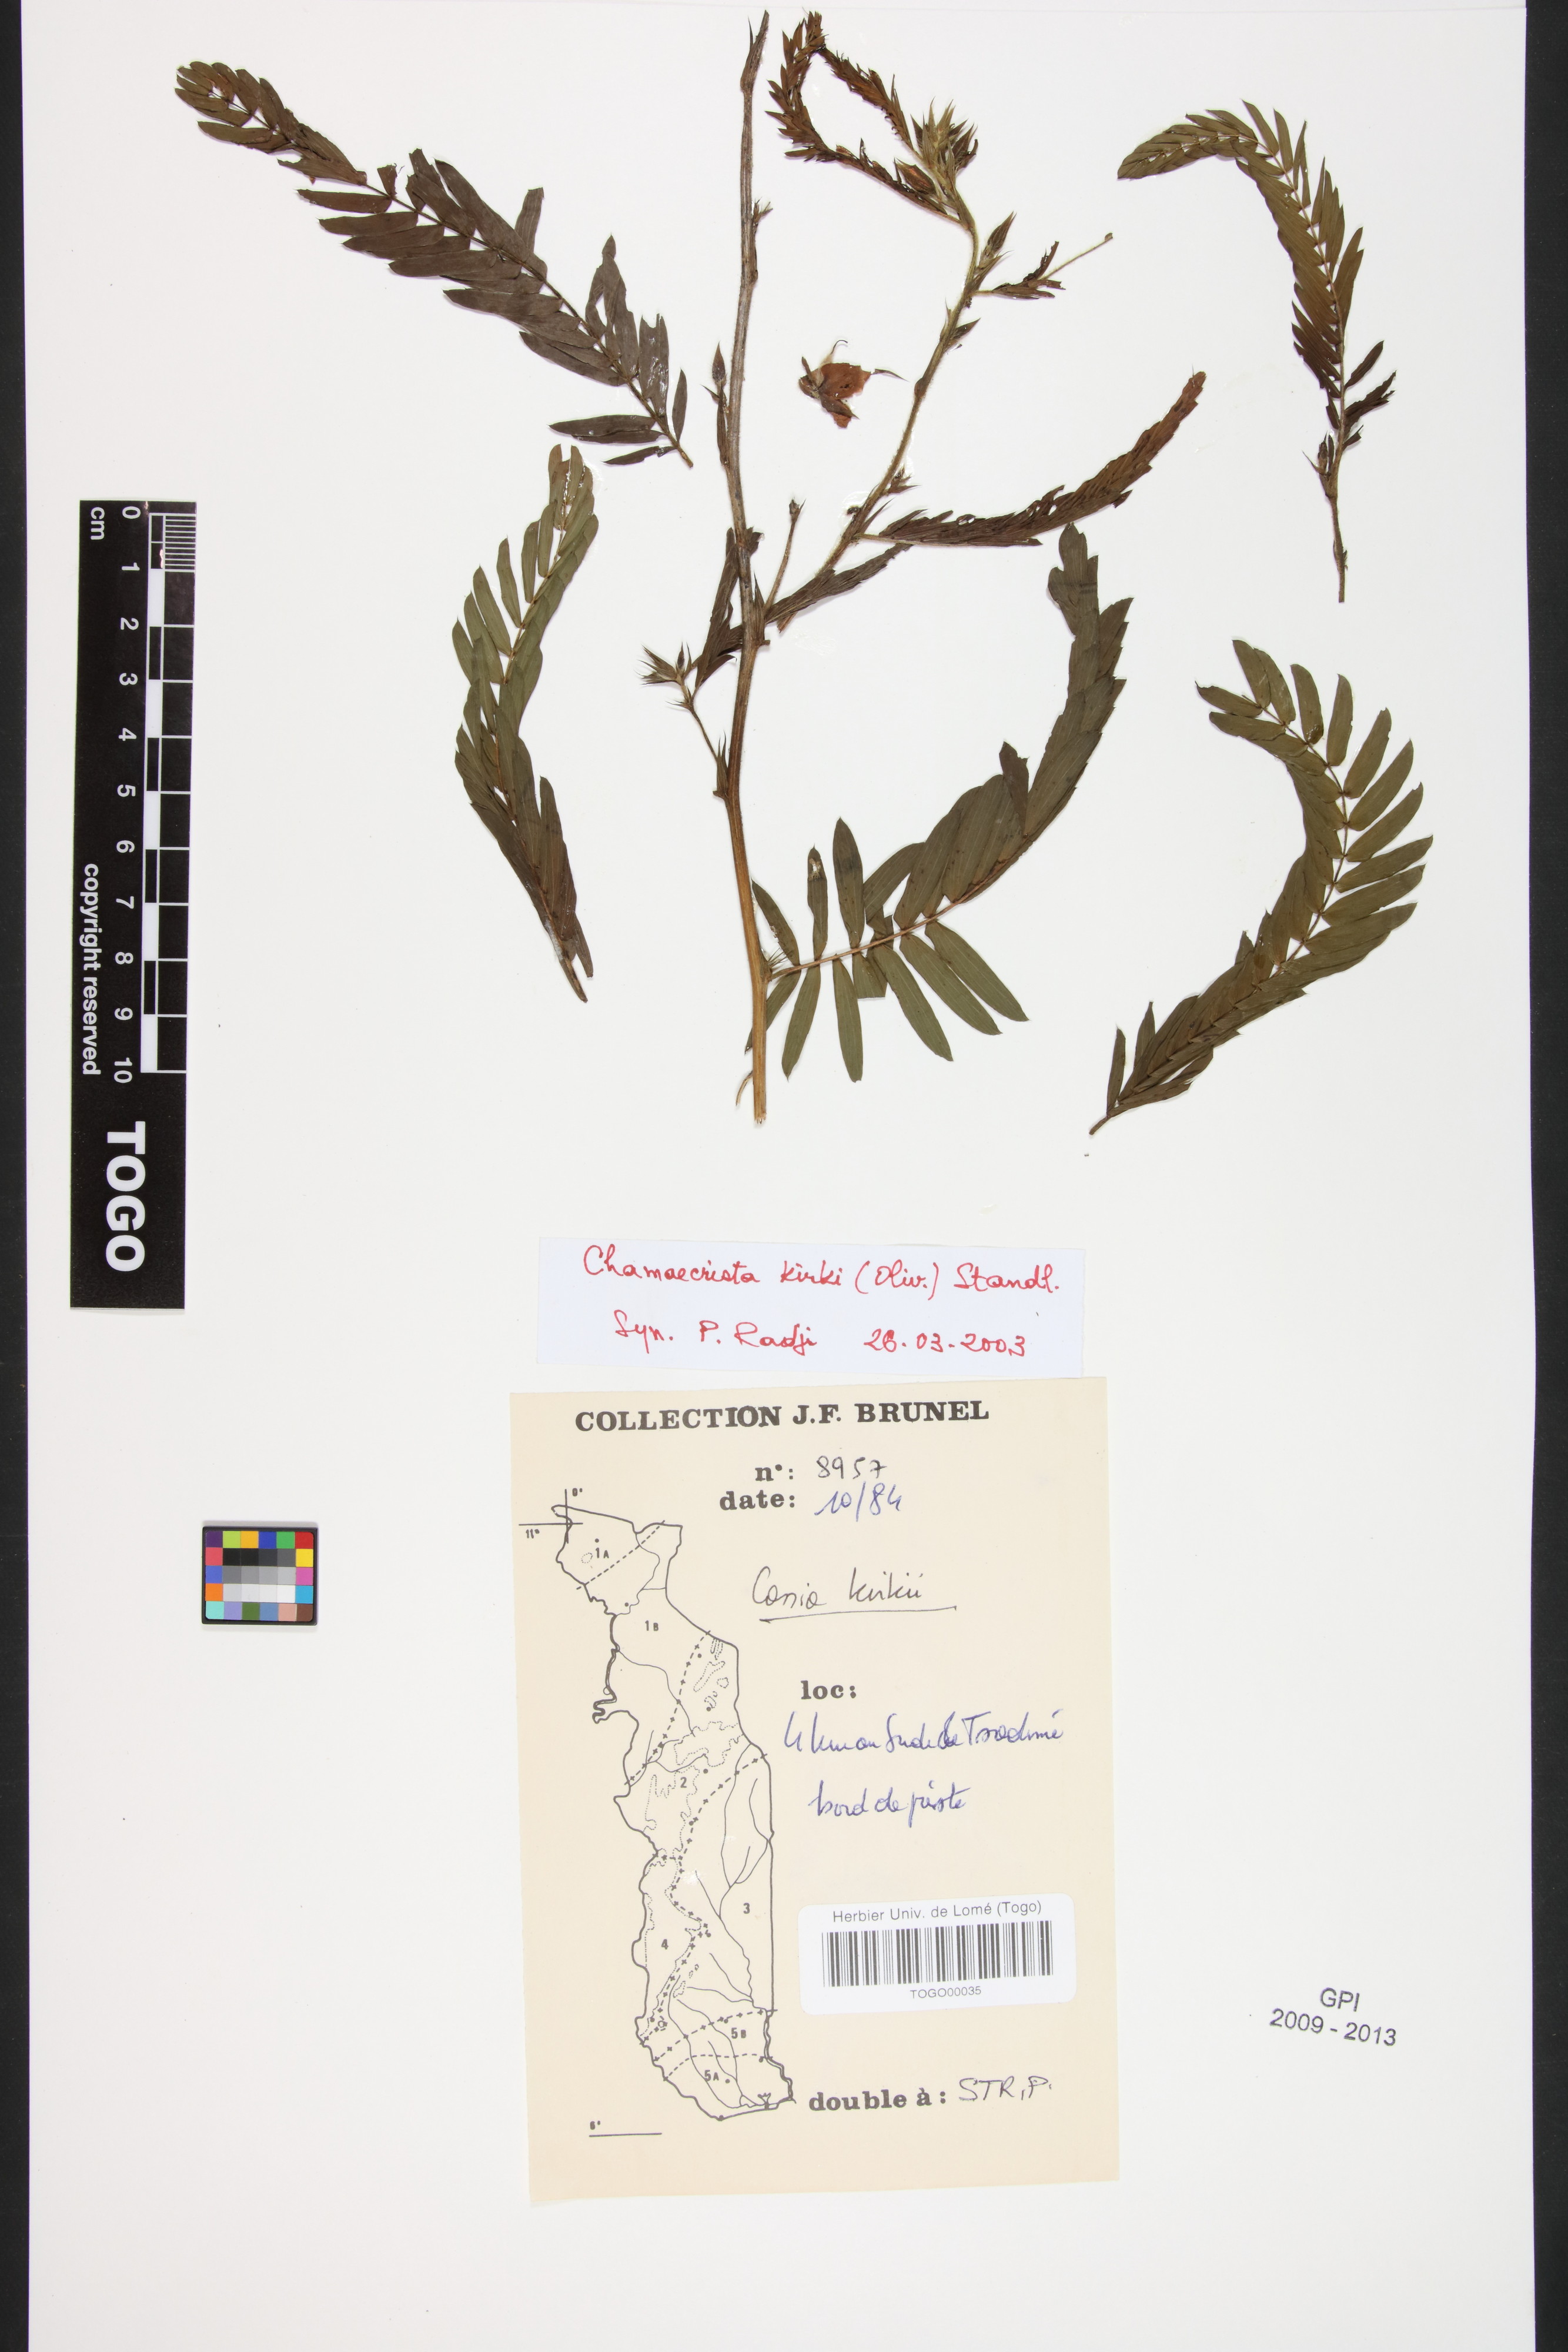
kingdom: Plantae
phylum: Tracheophyta
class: Magnoliopsida
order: Fabales
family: Fabaceae
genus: Chamaecrista
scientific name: Chamaecrista kirkii
